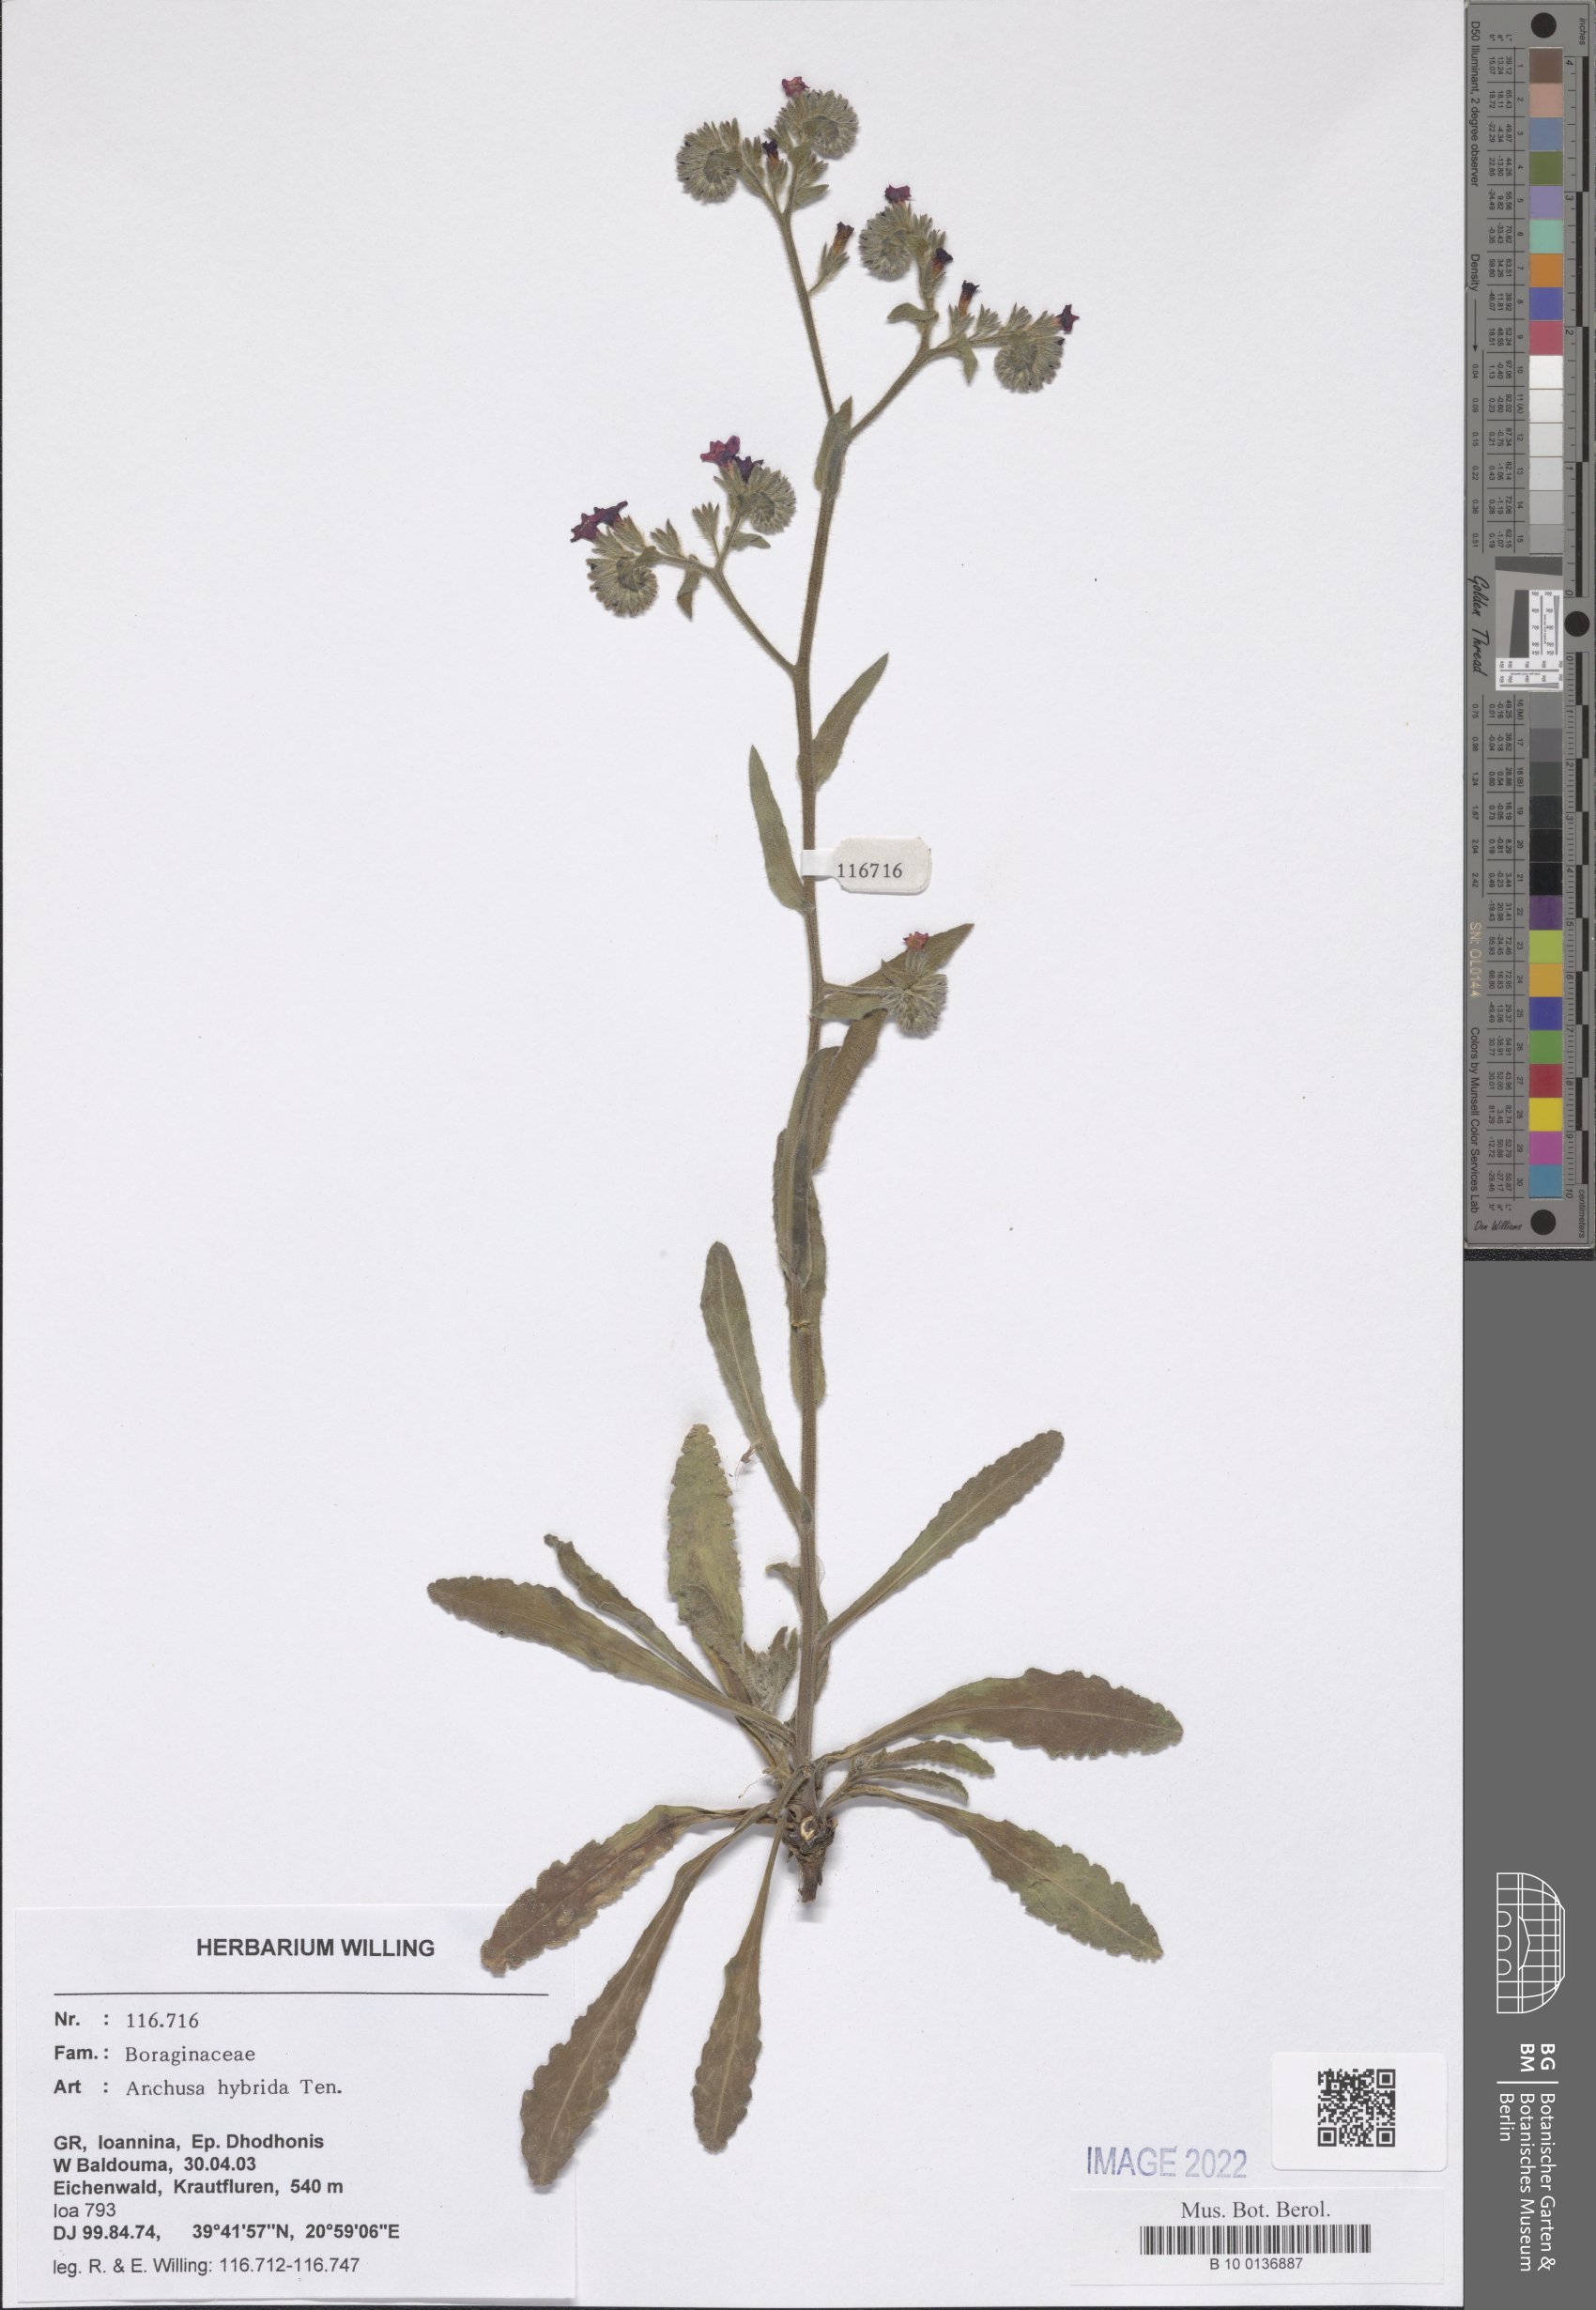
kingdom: Plantae
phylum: Tracheophyta
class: Magnoliopsida
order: Boraginales
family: Boraginaceae
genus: Anchusa
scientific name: Anchusa hybrida
